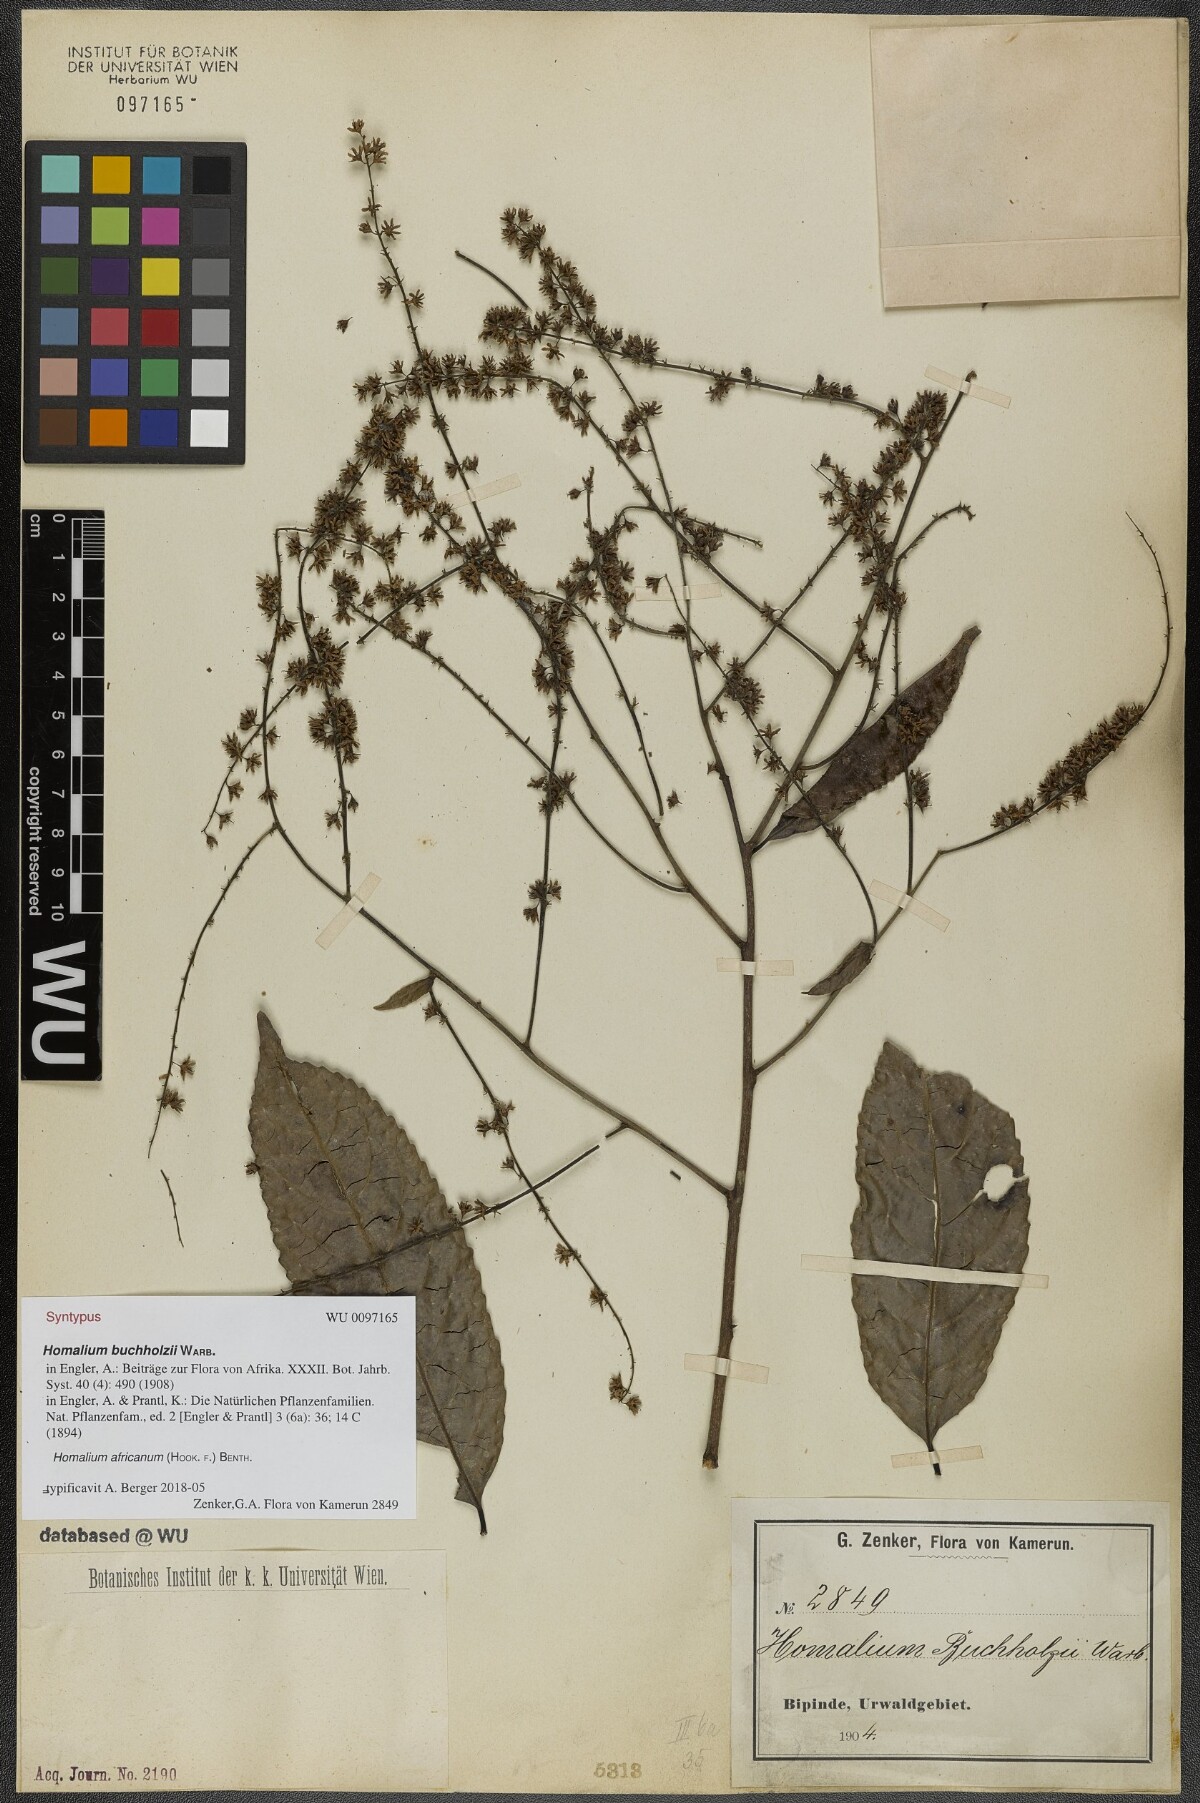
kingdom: Plantae
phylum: Tracheophyta
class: Magnoliopsida
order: Malpighiales
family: Salicaceae
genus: Homalium
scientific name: Homalium africanum
